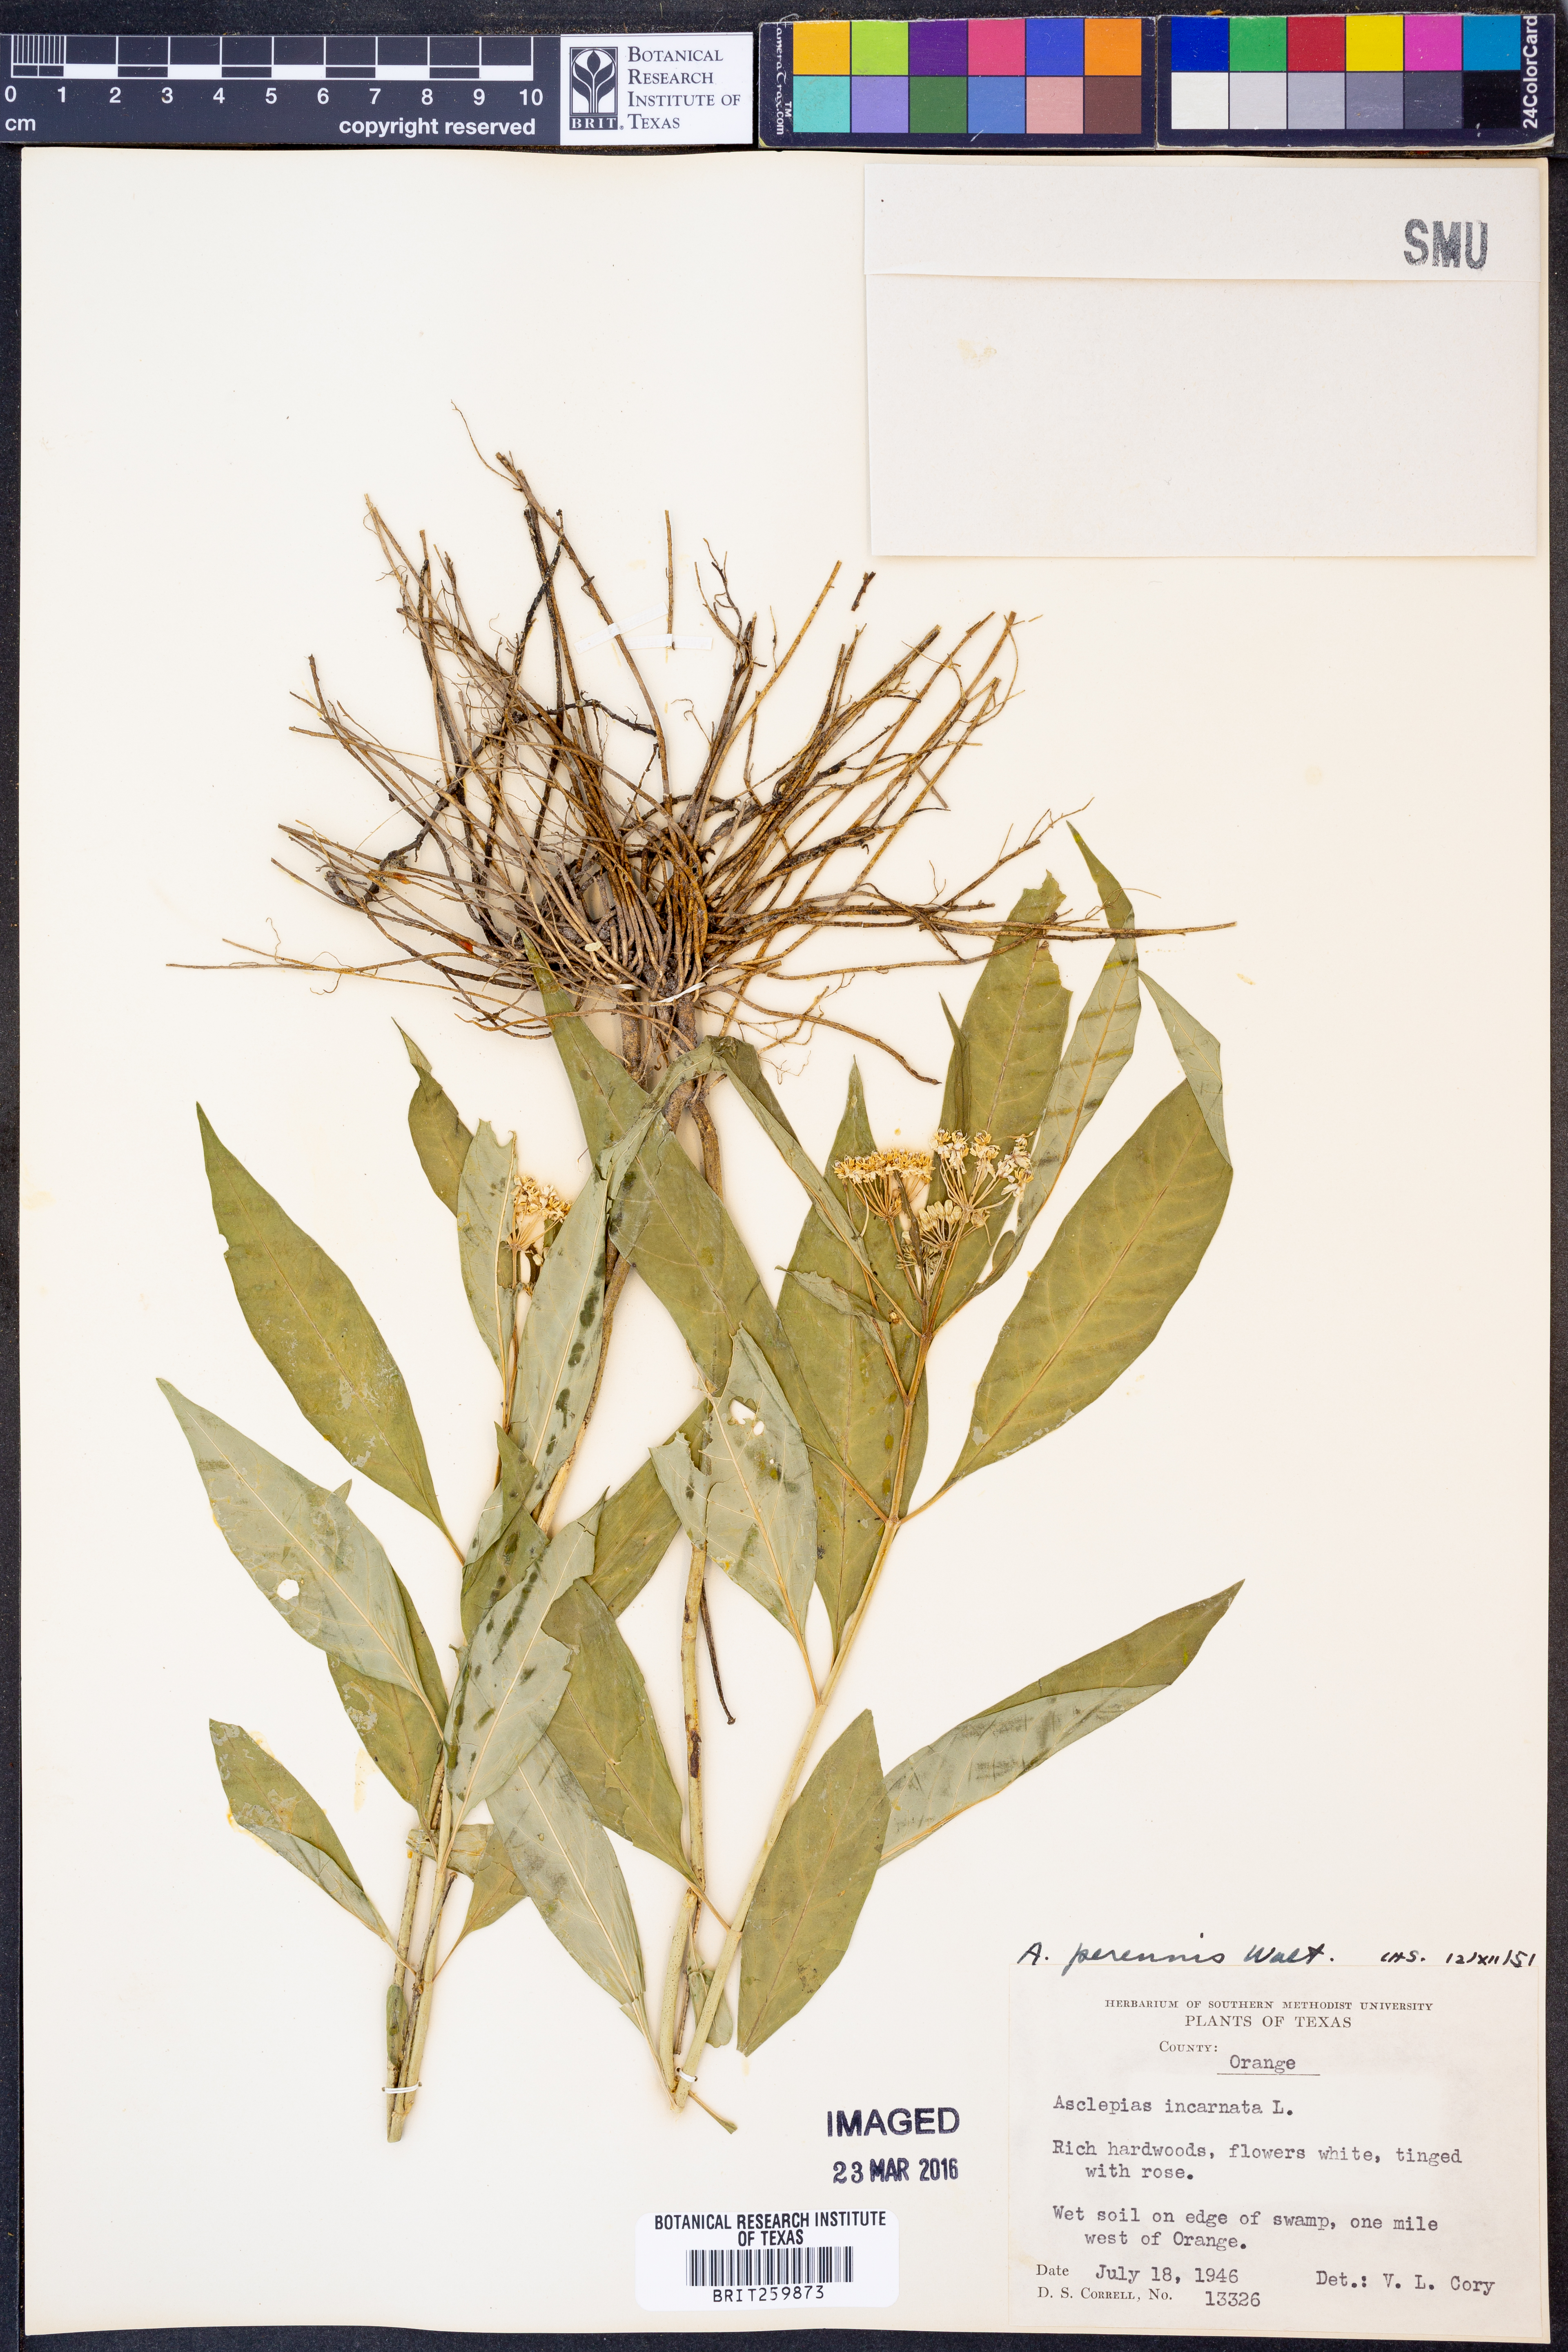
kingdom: Plantae
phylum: Tracheophyta
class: Magnoliopsida
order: Gentianales
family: Apocynaceae
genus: Asclepias
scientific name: Asclepias perennis
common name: Smooth-seed milkweed
